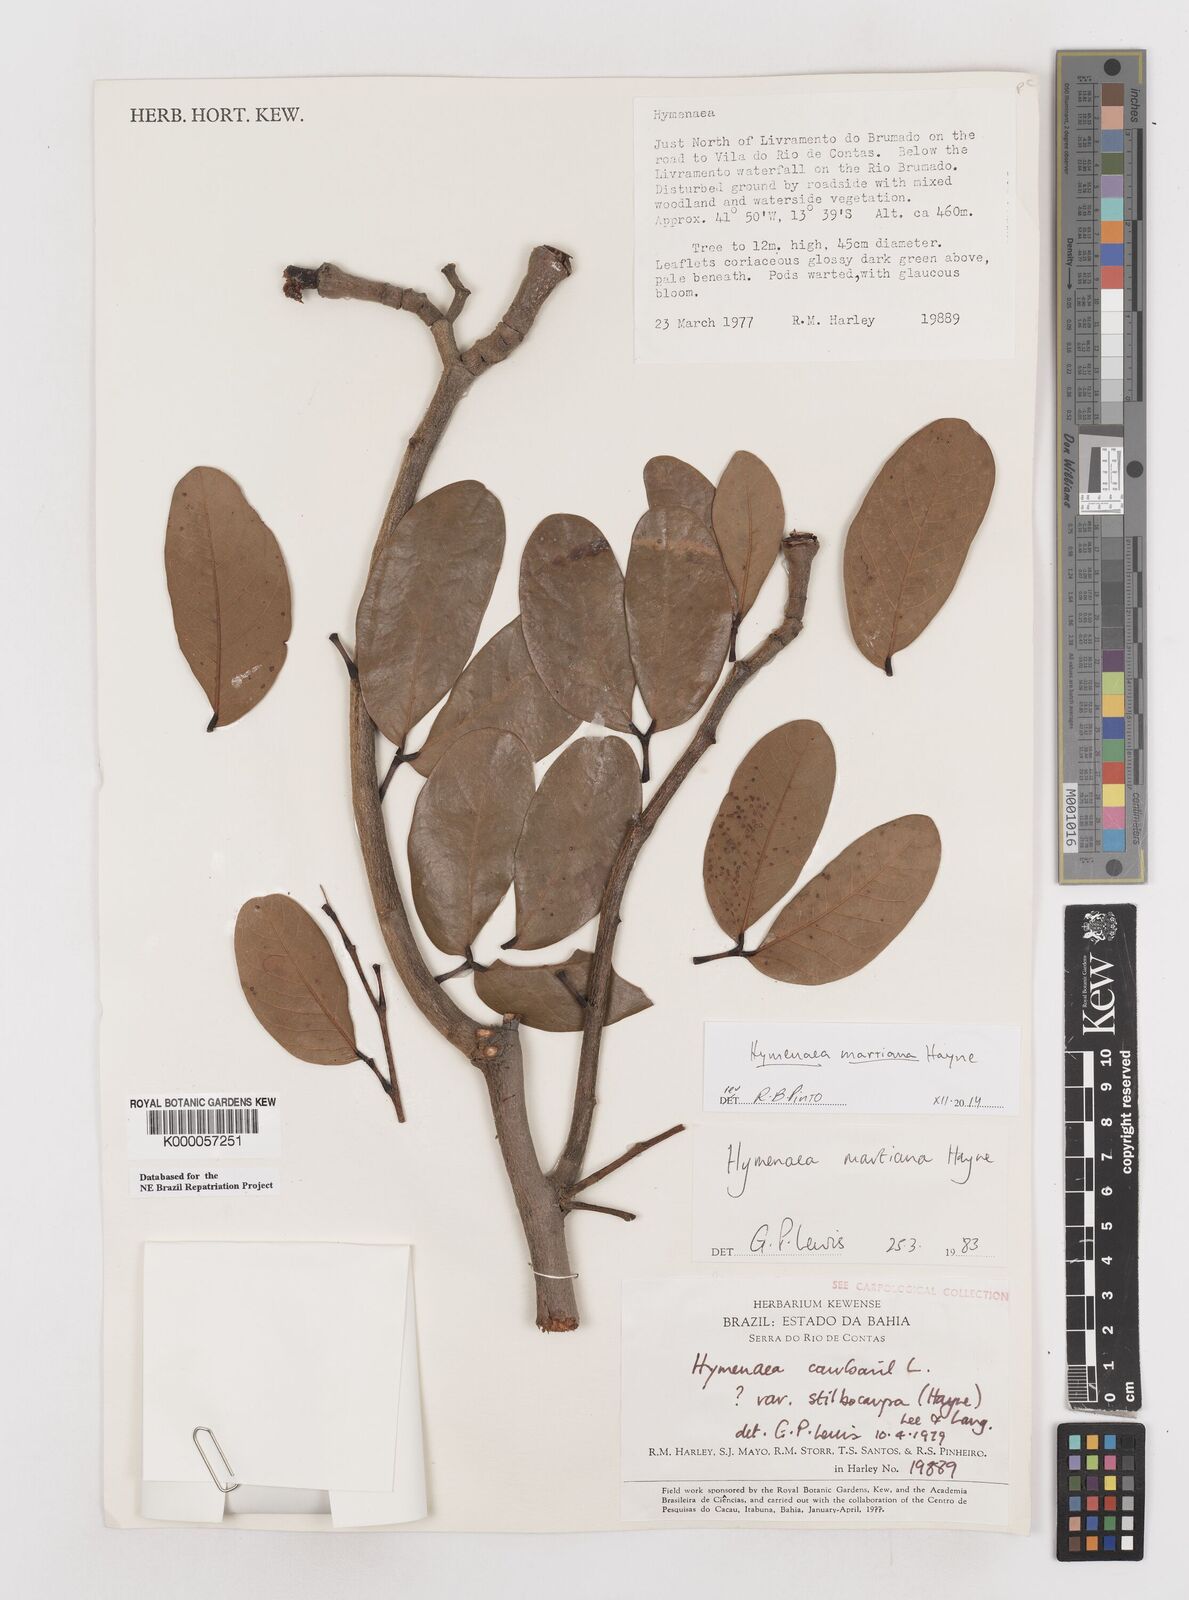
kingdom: Plantae
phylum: Tracheophyta
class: Magnoliopsida
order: Fabales
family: Fabaceae
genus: Hymenaea
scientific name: Hymenaea martiana
